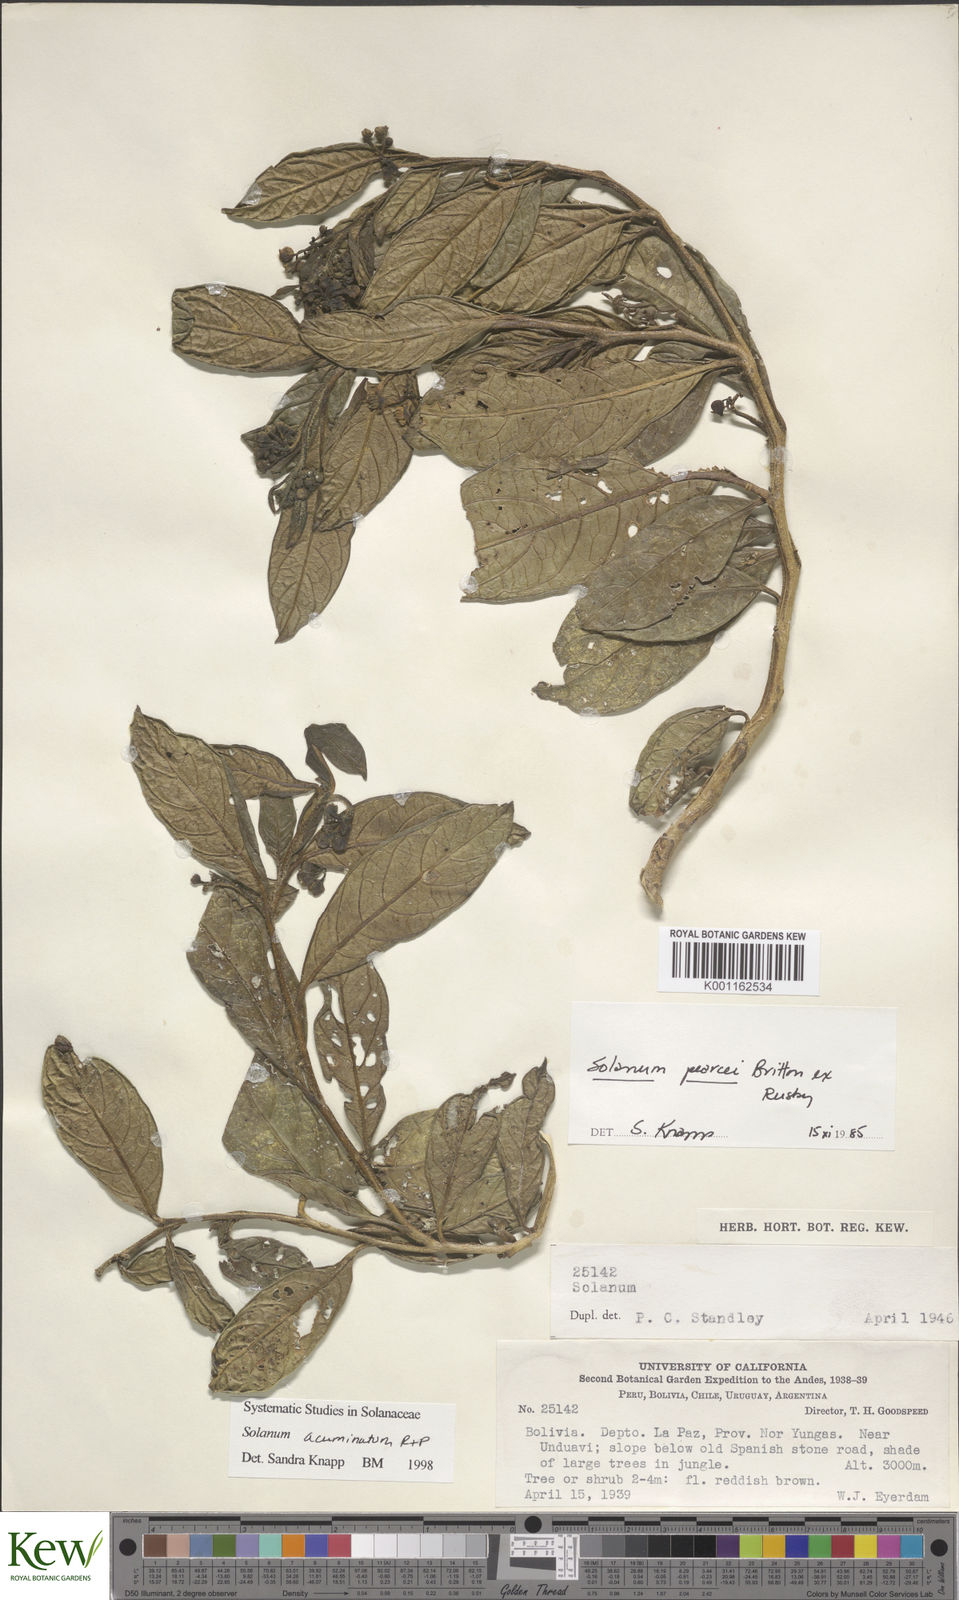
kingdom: Plantae
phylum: Tracheophyta
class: Magnoliopsida
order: Solanales
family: Solanaceae
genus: Solanum
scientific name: Solanum acuminatum
